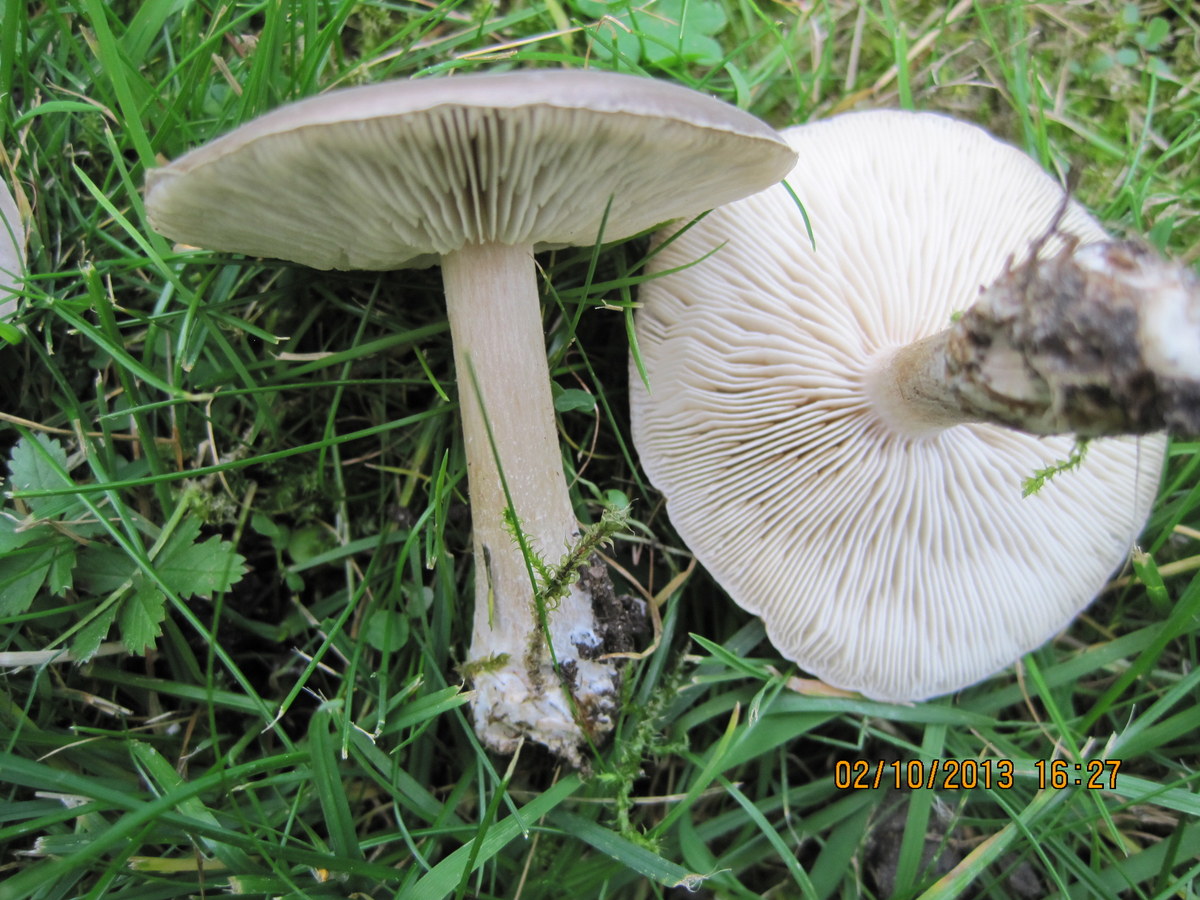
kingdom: Fungi
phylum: Basidiomycota
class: Agaricomycetes
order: Agaricales
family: Tricholomataceae
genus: Melanoleuca
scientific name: Melanoleuca polioleuca
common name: hvidbladet munkehat
